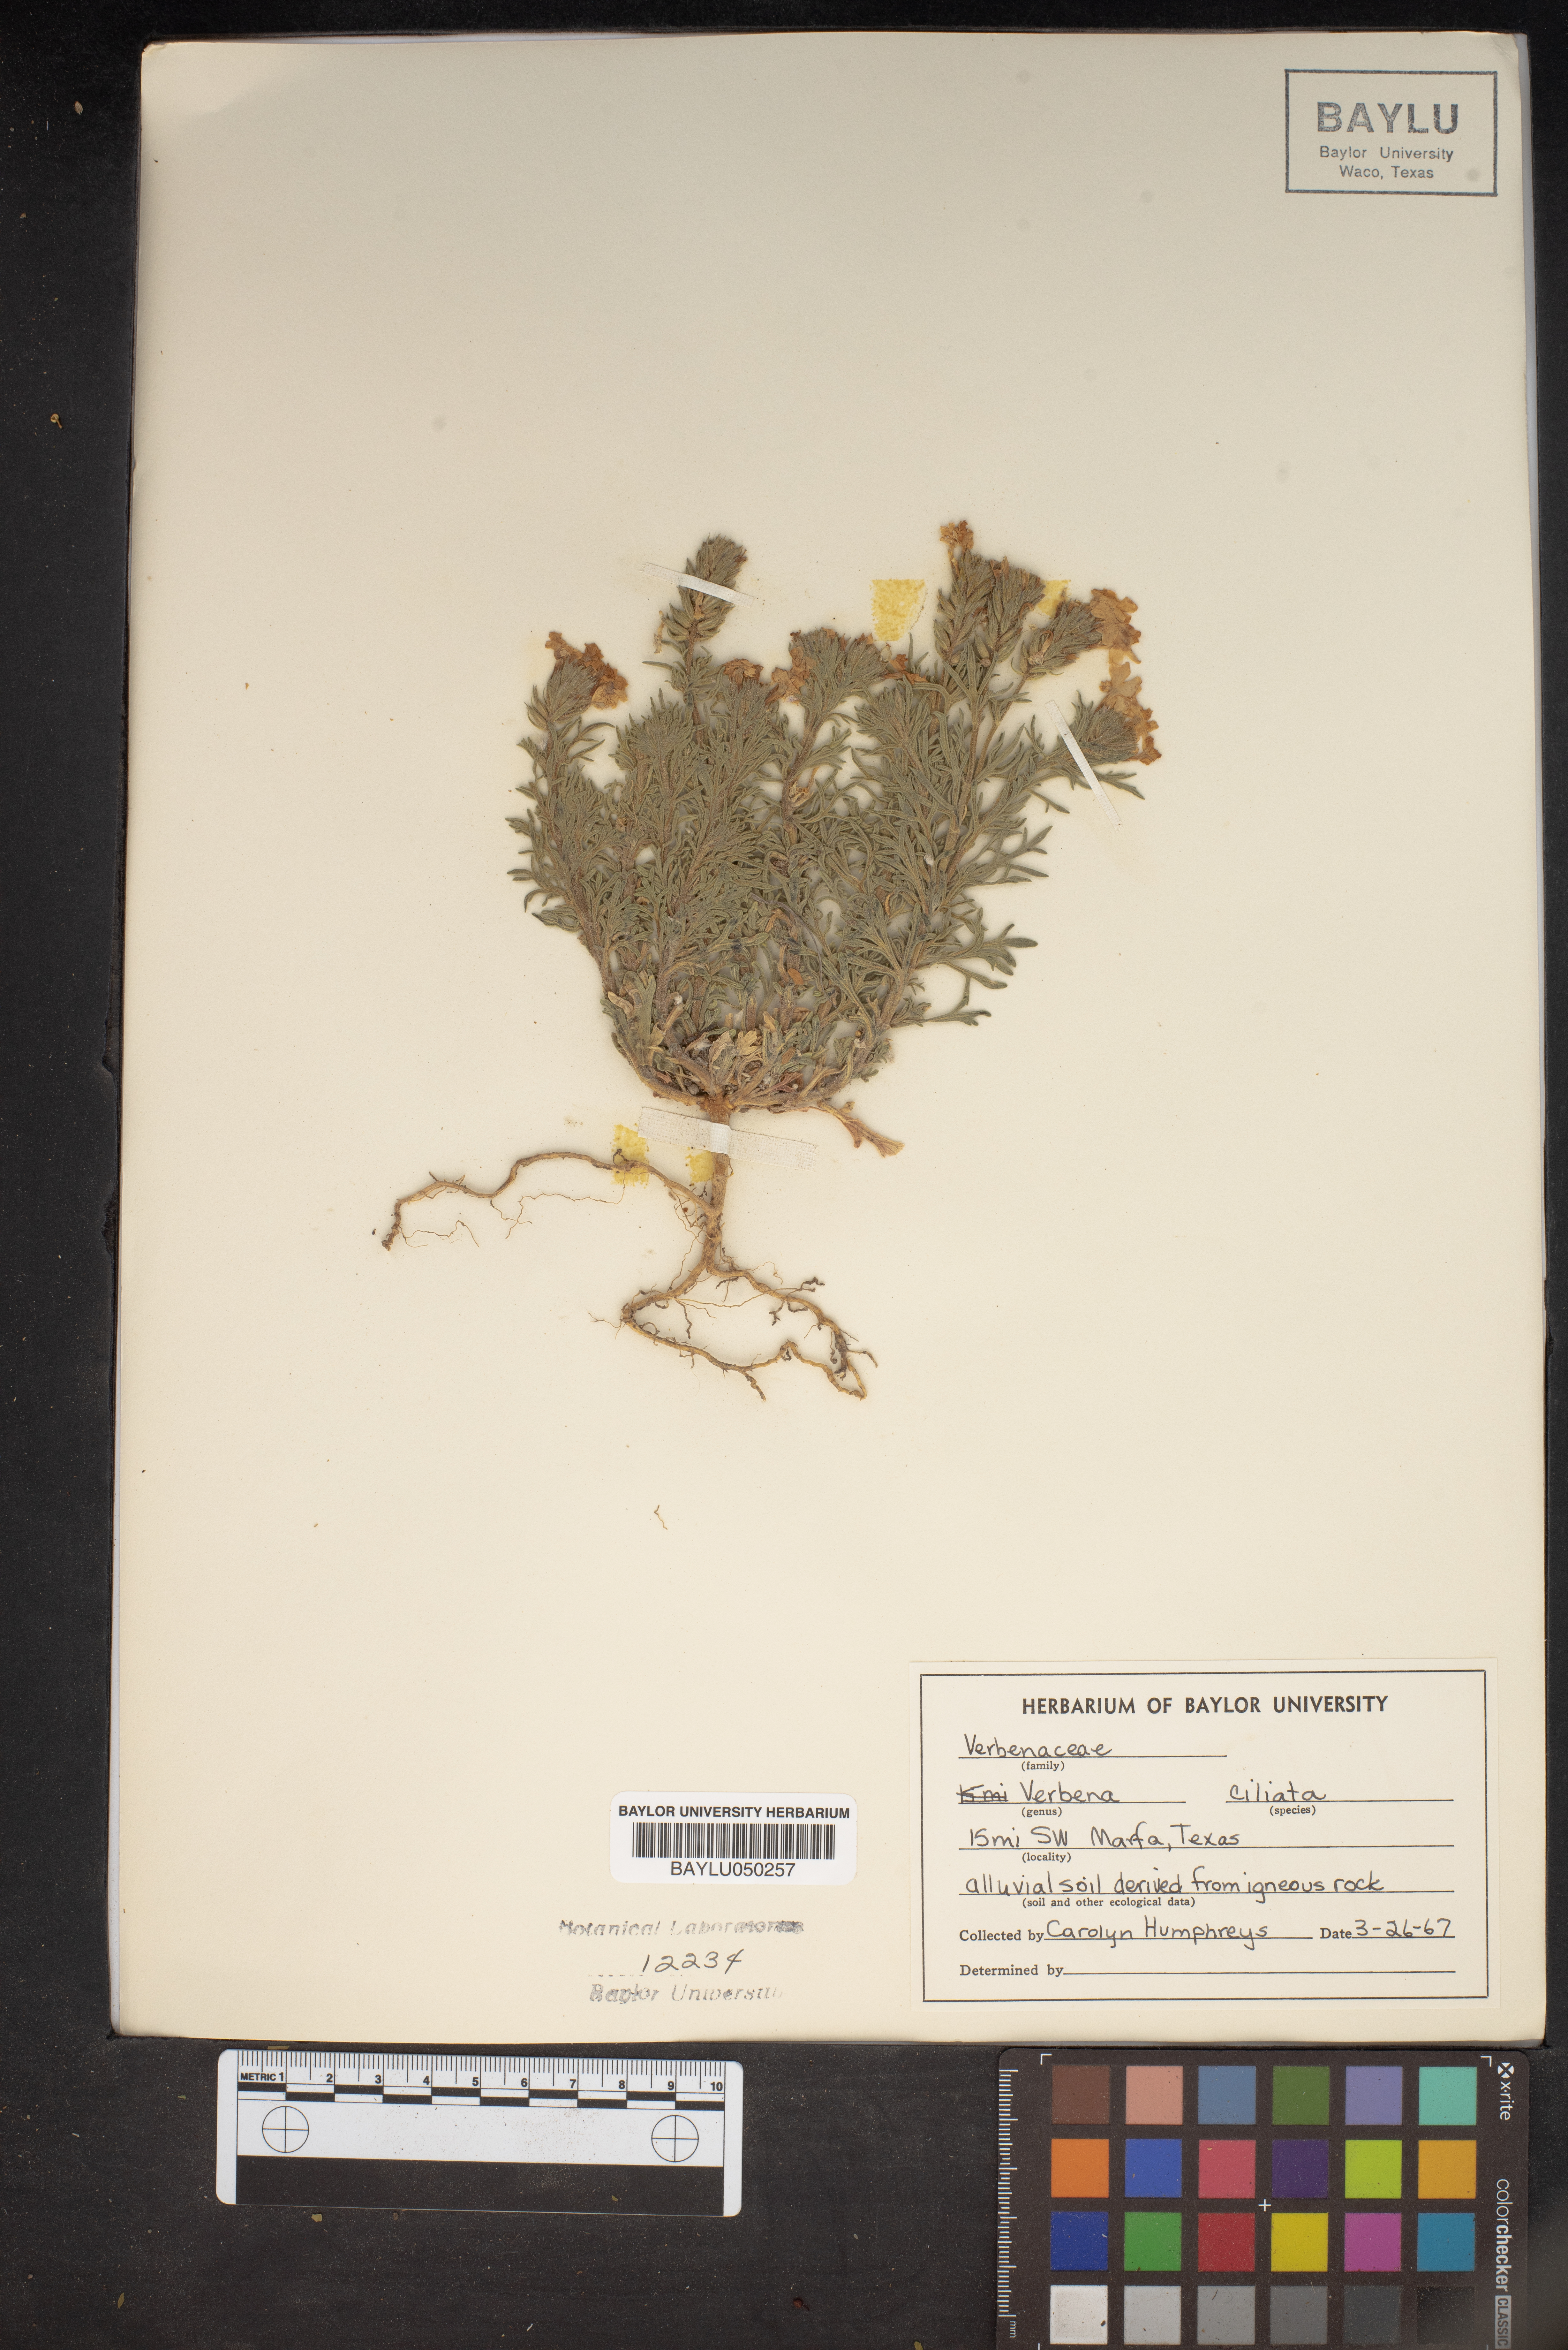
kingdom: Plantae
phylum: Tracheophyta
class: Magnoliopsida
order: Lamiales
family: Verbenaceae
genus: Verbena
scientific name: Verbena bipinnatifida
